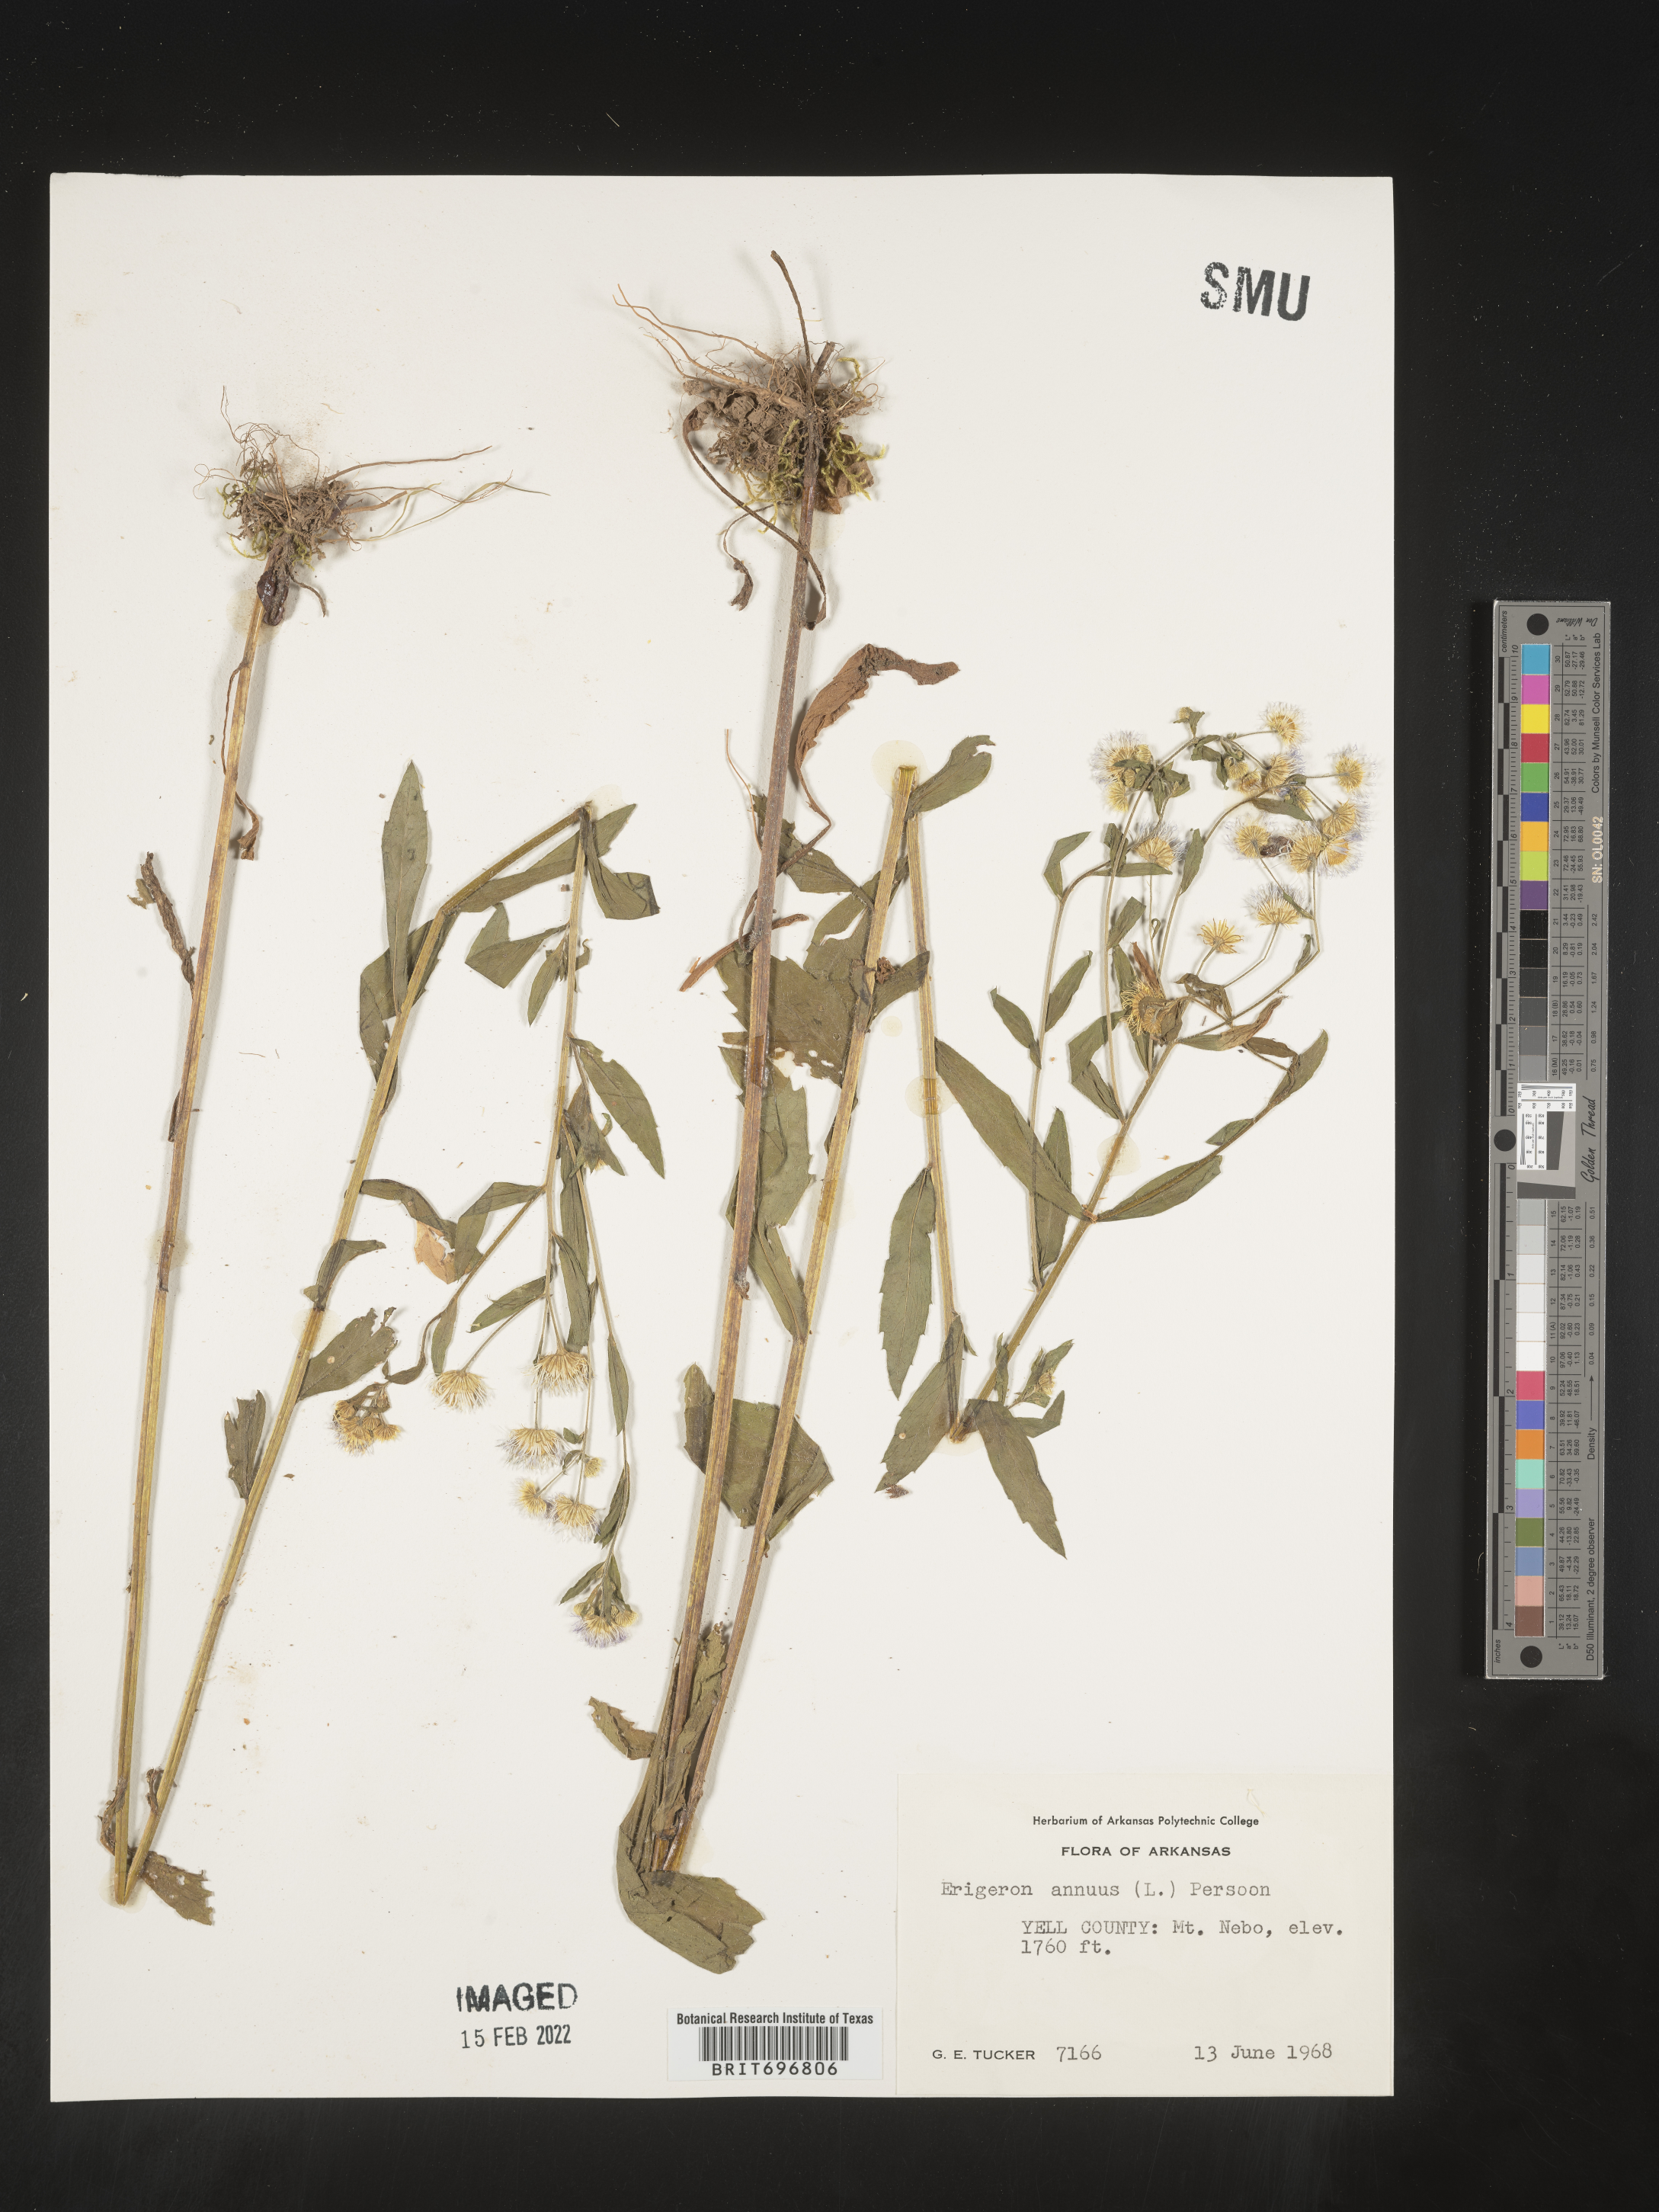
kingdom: Plantae
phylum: Tracheophyta
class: Magnoliopsida
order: Asterales
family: Asteraceae
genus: Erigeron
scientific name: Erigeron annuus
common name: Tall fleabane
